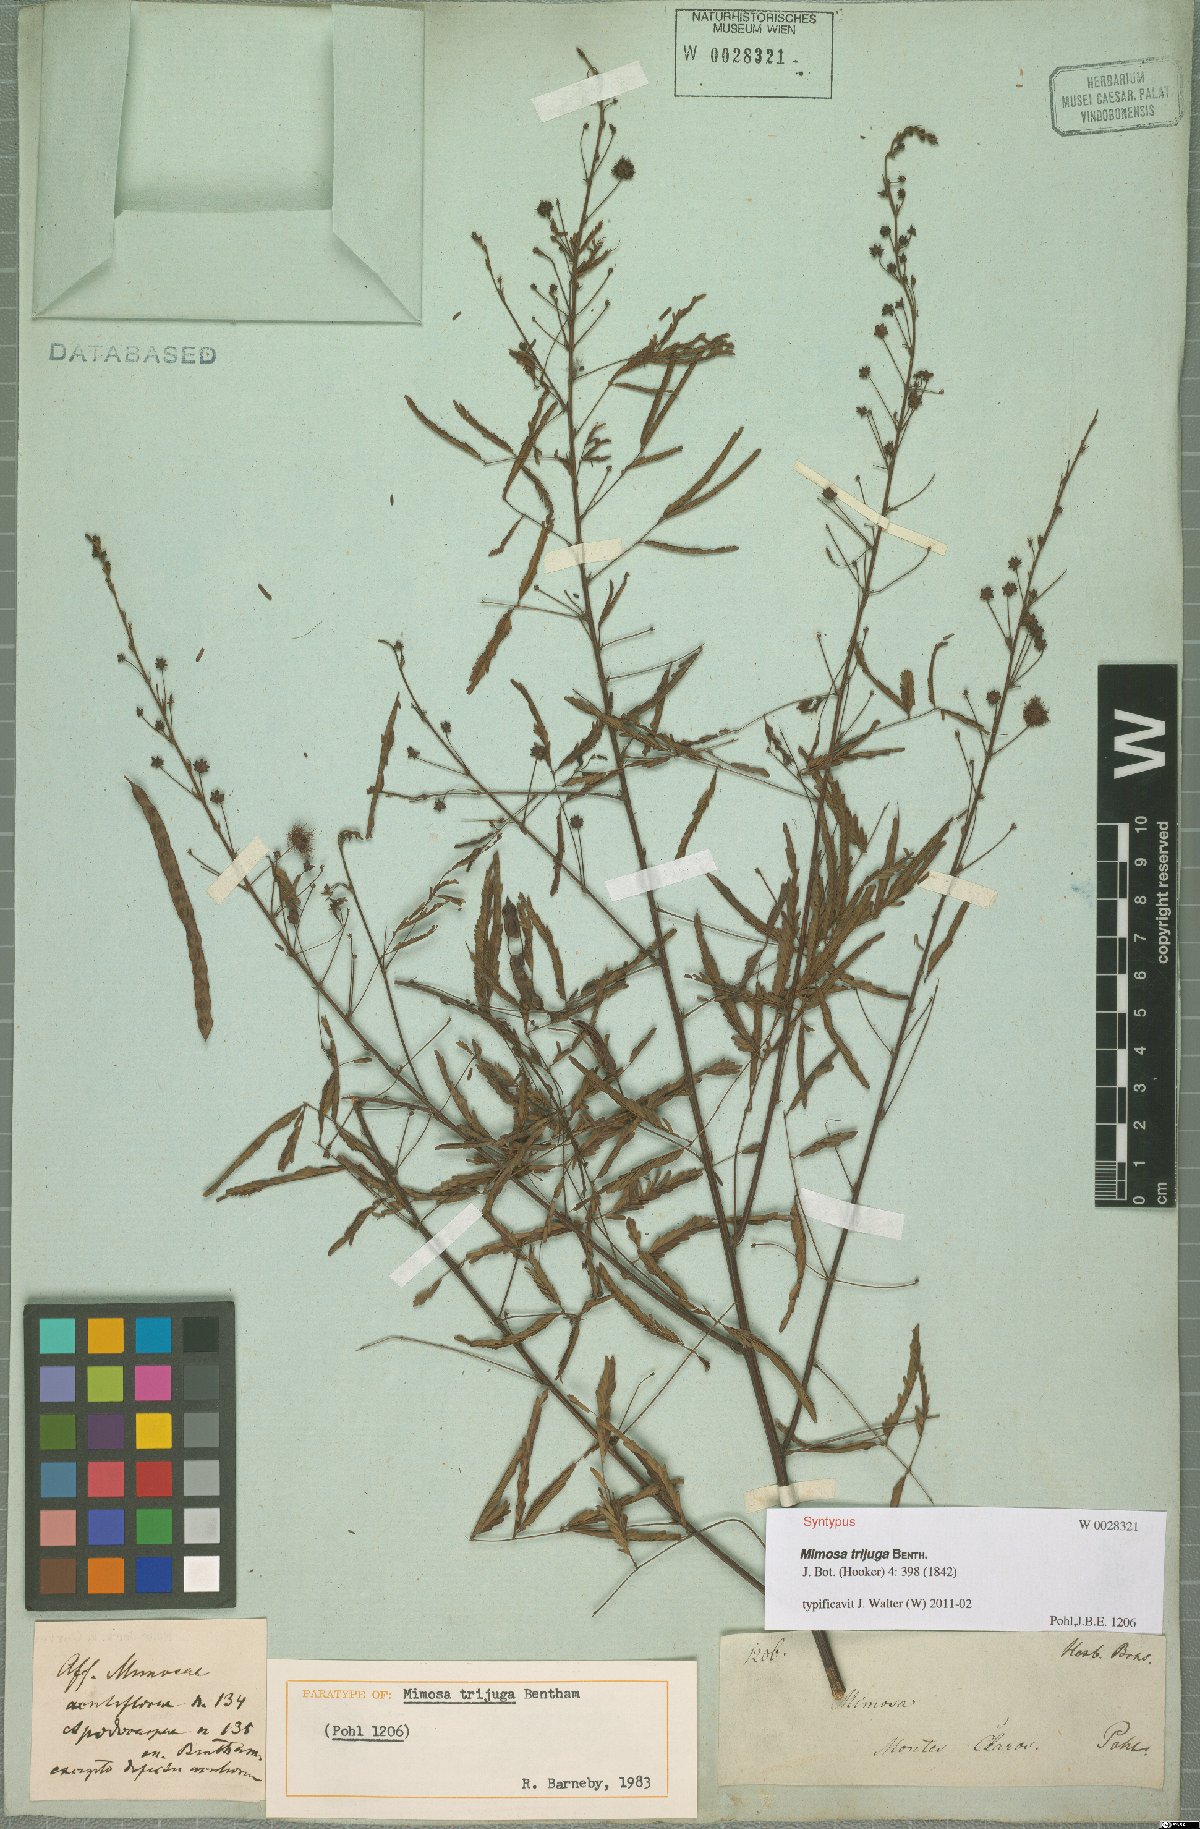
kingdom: Plantae
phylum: Tracheophyta
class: Magnoliopsida
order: Fabales
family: Fabaceae
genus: Mimosa
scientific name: Mimosa somnians
